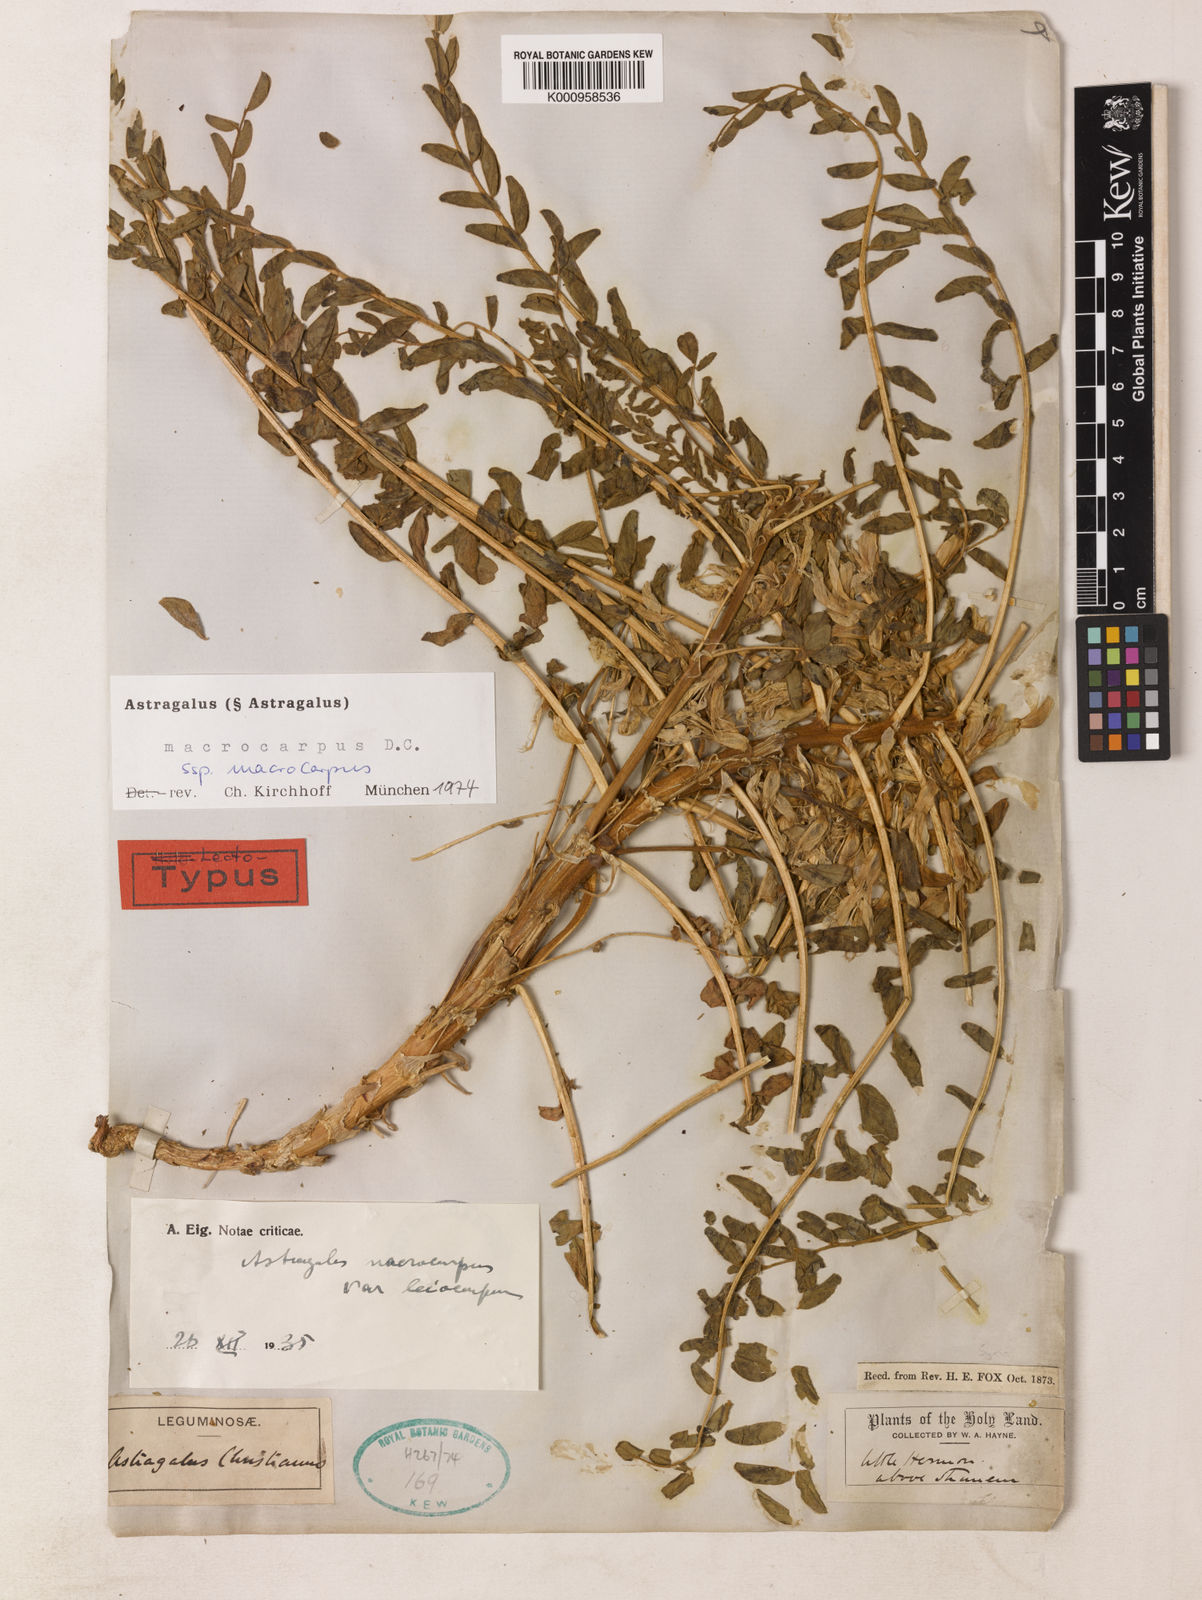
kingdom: Plantae
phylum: Tracheophyta
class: Magnoliopsida
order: Fabales
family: Fabaceae
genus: Astragalus
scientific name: Astragalus macrocarpus
